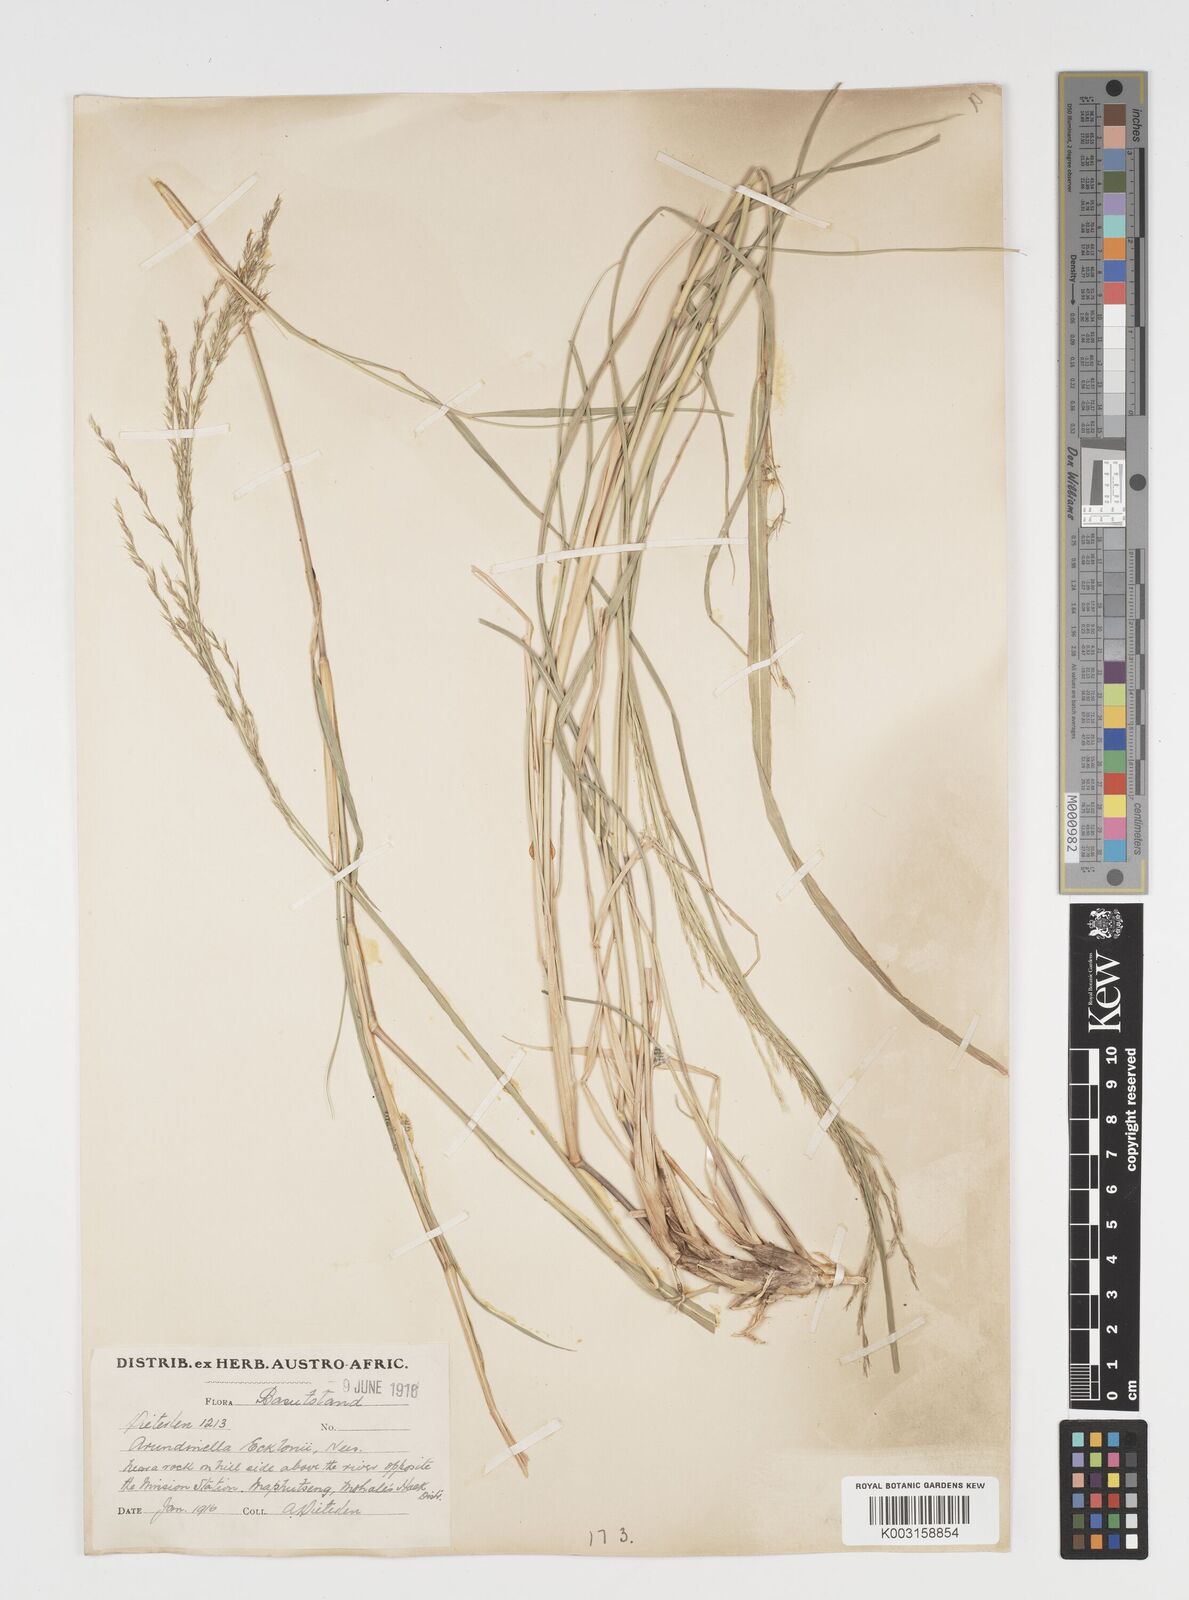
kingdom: Plantae
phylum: Tracheophyta
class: Liliopsida
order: Poales
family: Poaceae
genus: Arundinella
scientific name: Arundinella nepalensis
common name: Reed grass
